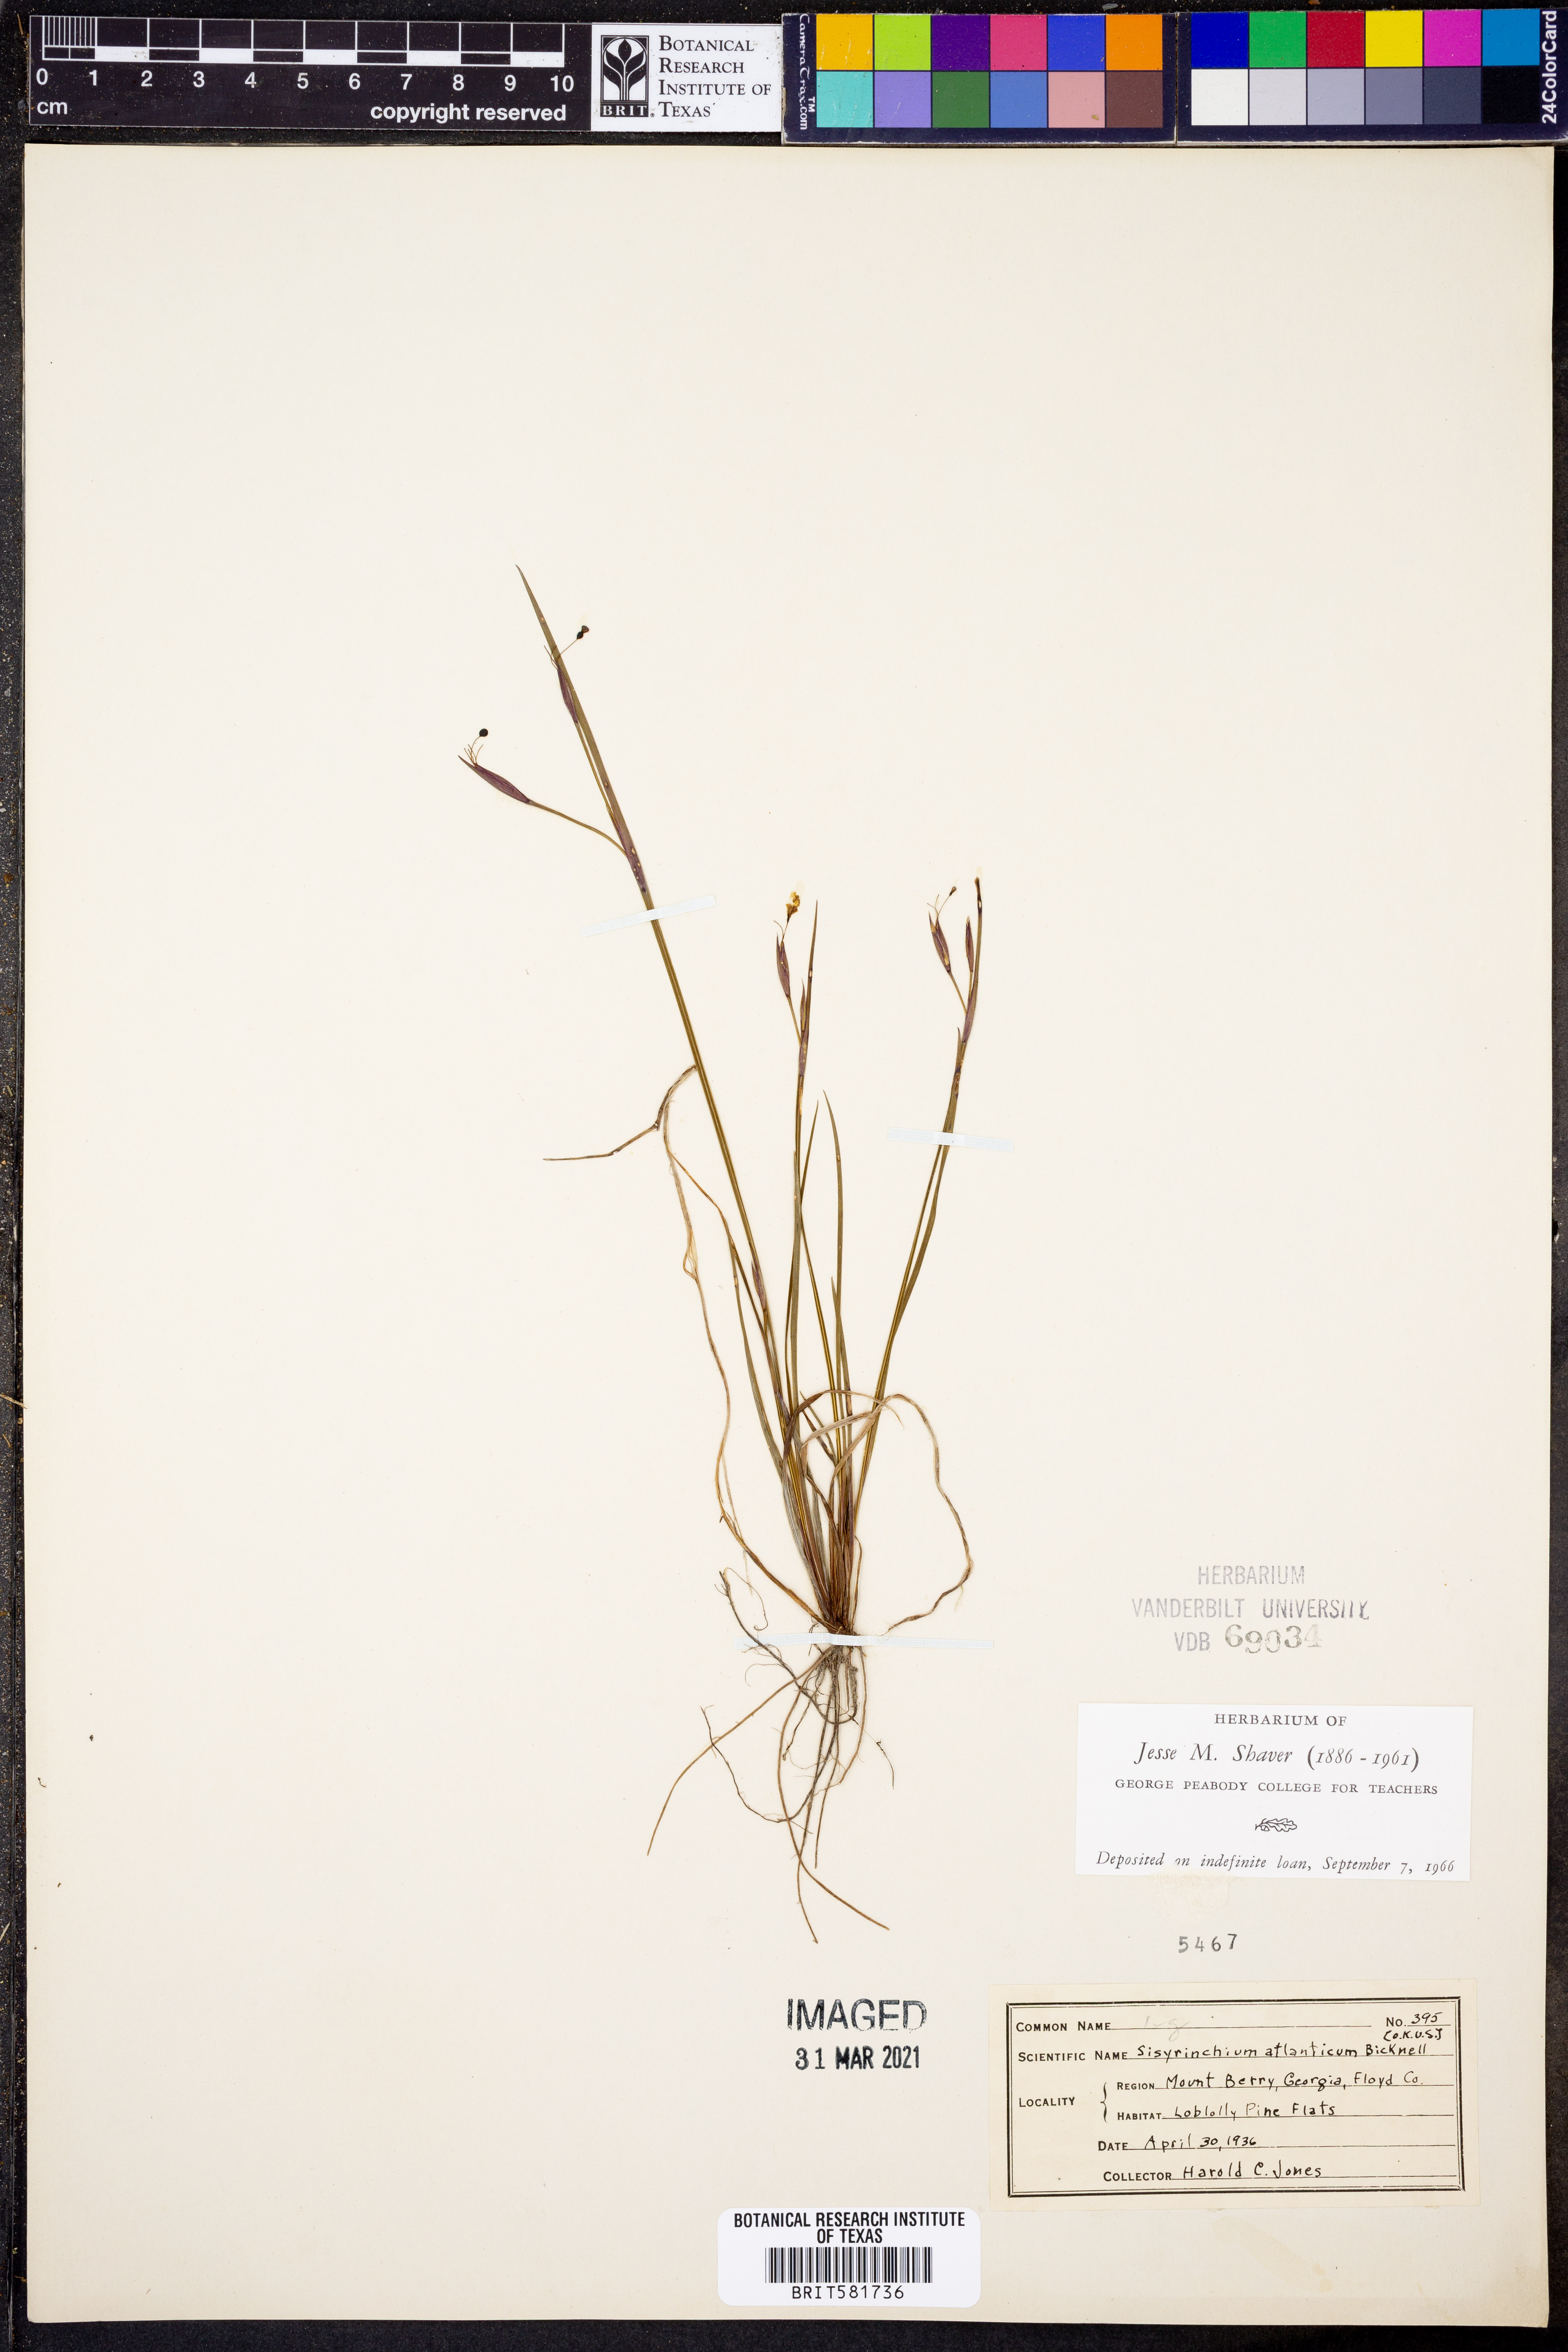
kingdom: Plantae
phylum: Tracheophyta
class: Liliopsida
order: Asparagales
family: Iridaceae
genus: Sisyrinchium
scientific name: Sisyrinchium atlanticum
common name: Eastern blue-eyed-grass
